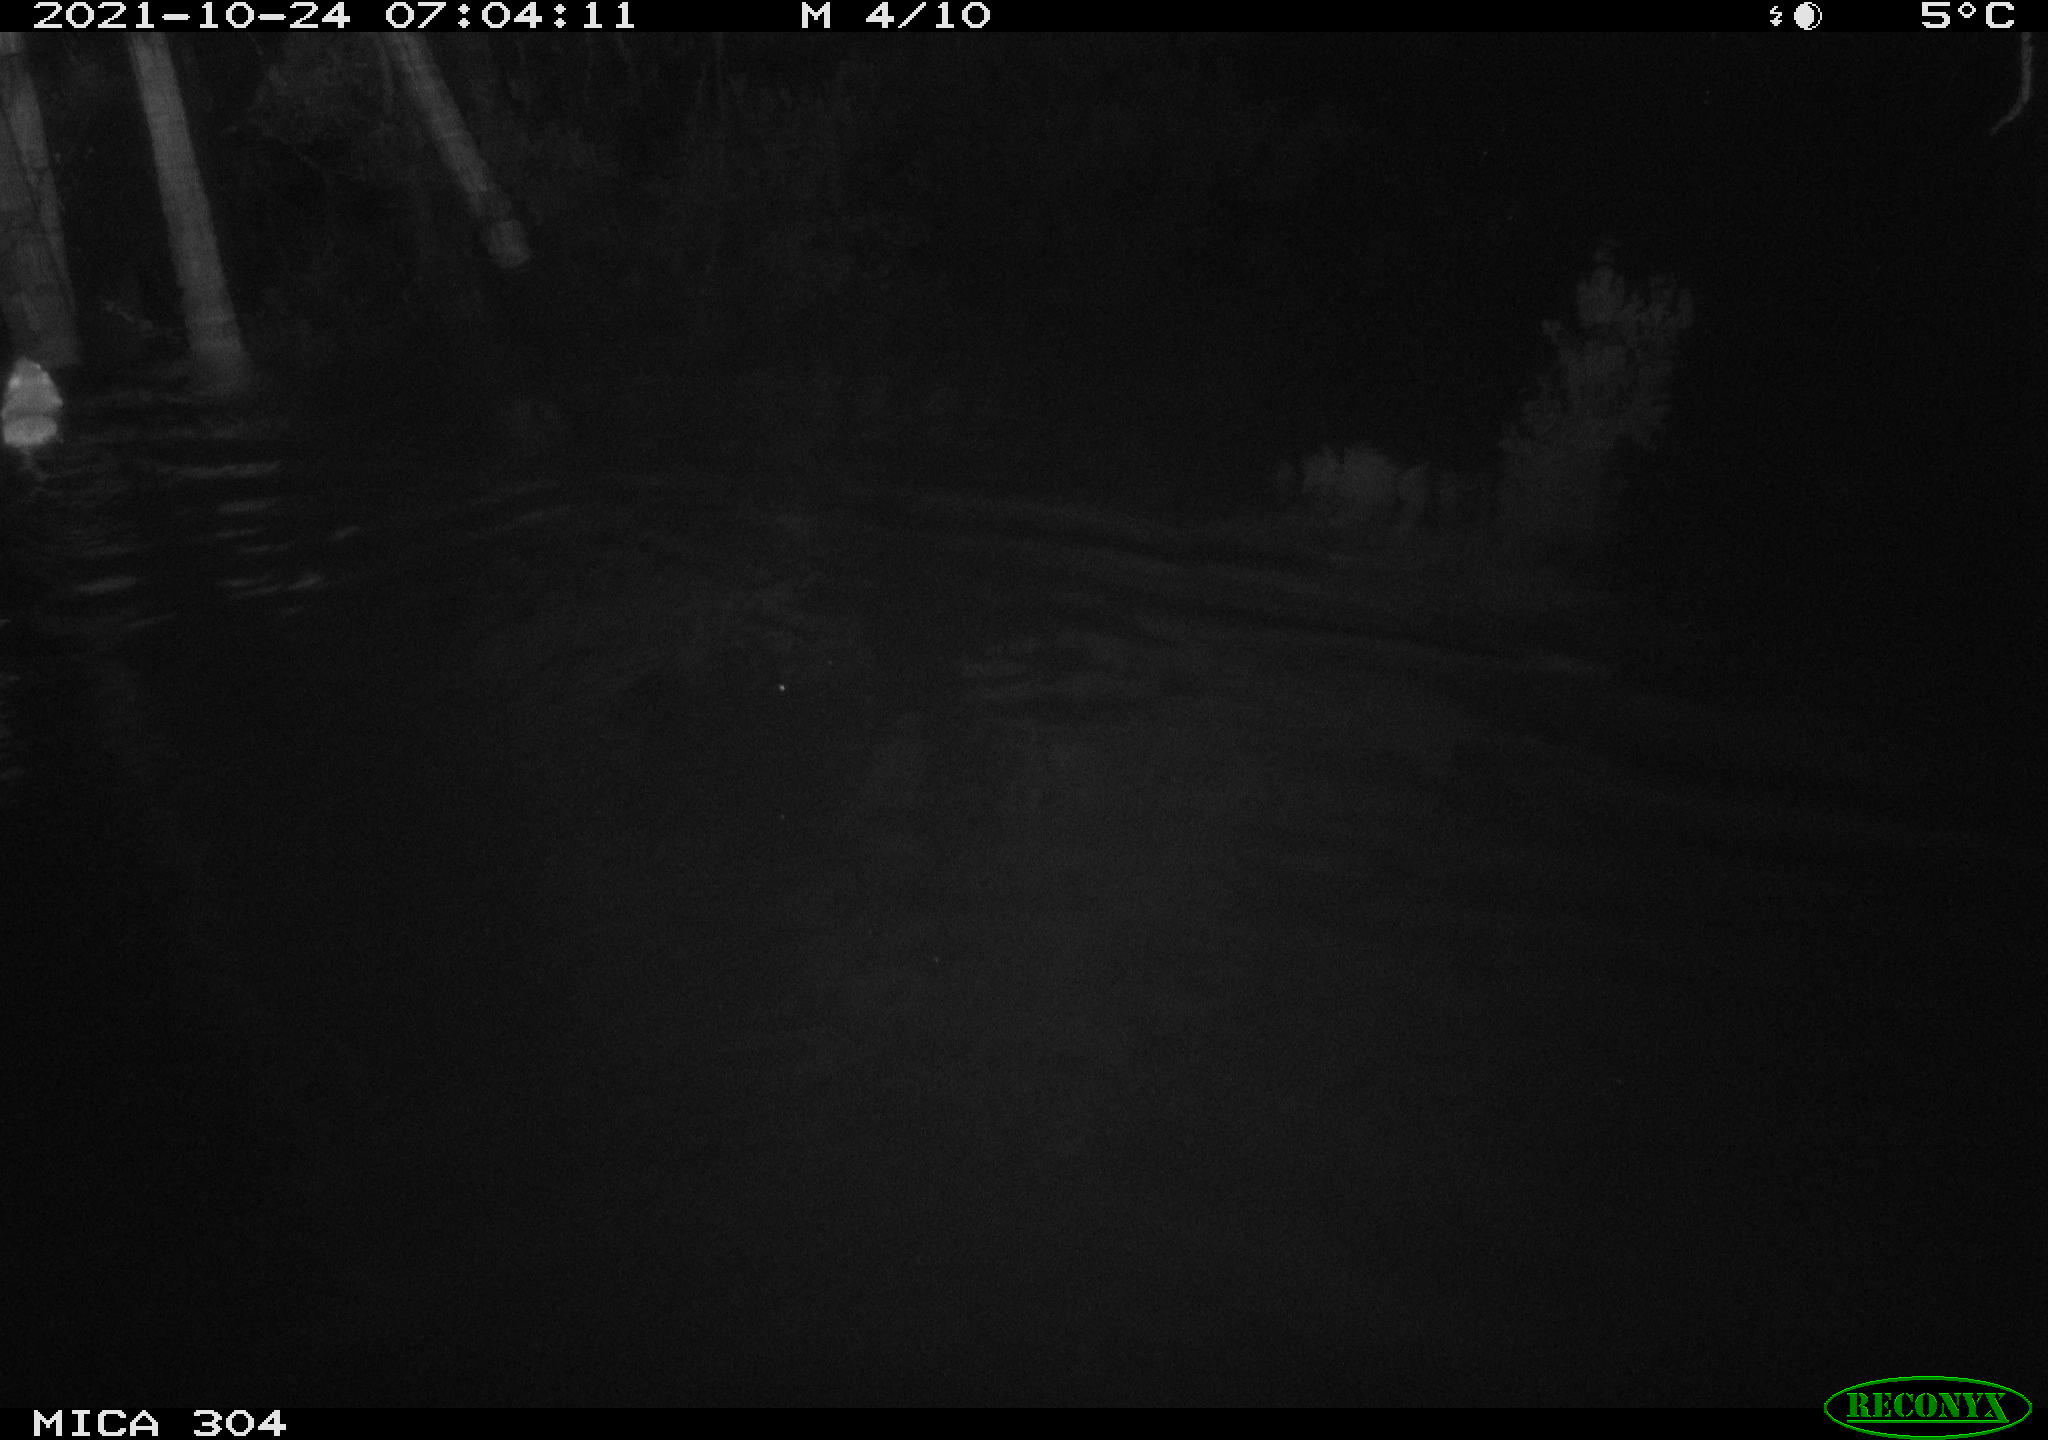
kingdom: Animalia
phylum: Chordata
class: Mammalia
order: Rodentia
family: Muridae
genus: Rattus
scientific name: Rattus norvegicus
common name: Brown rat
